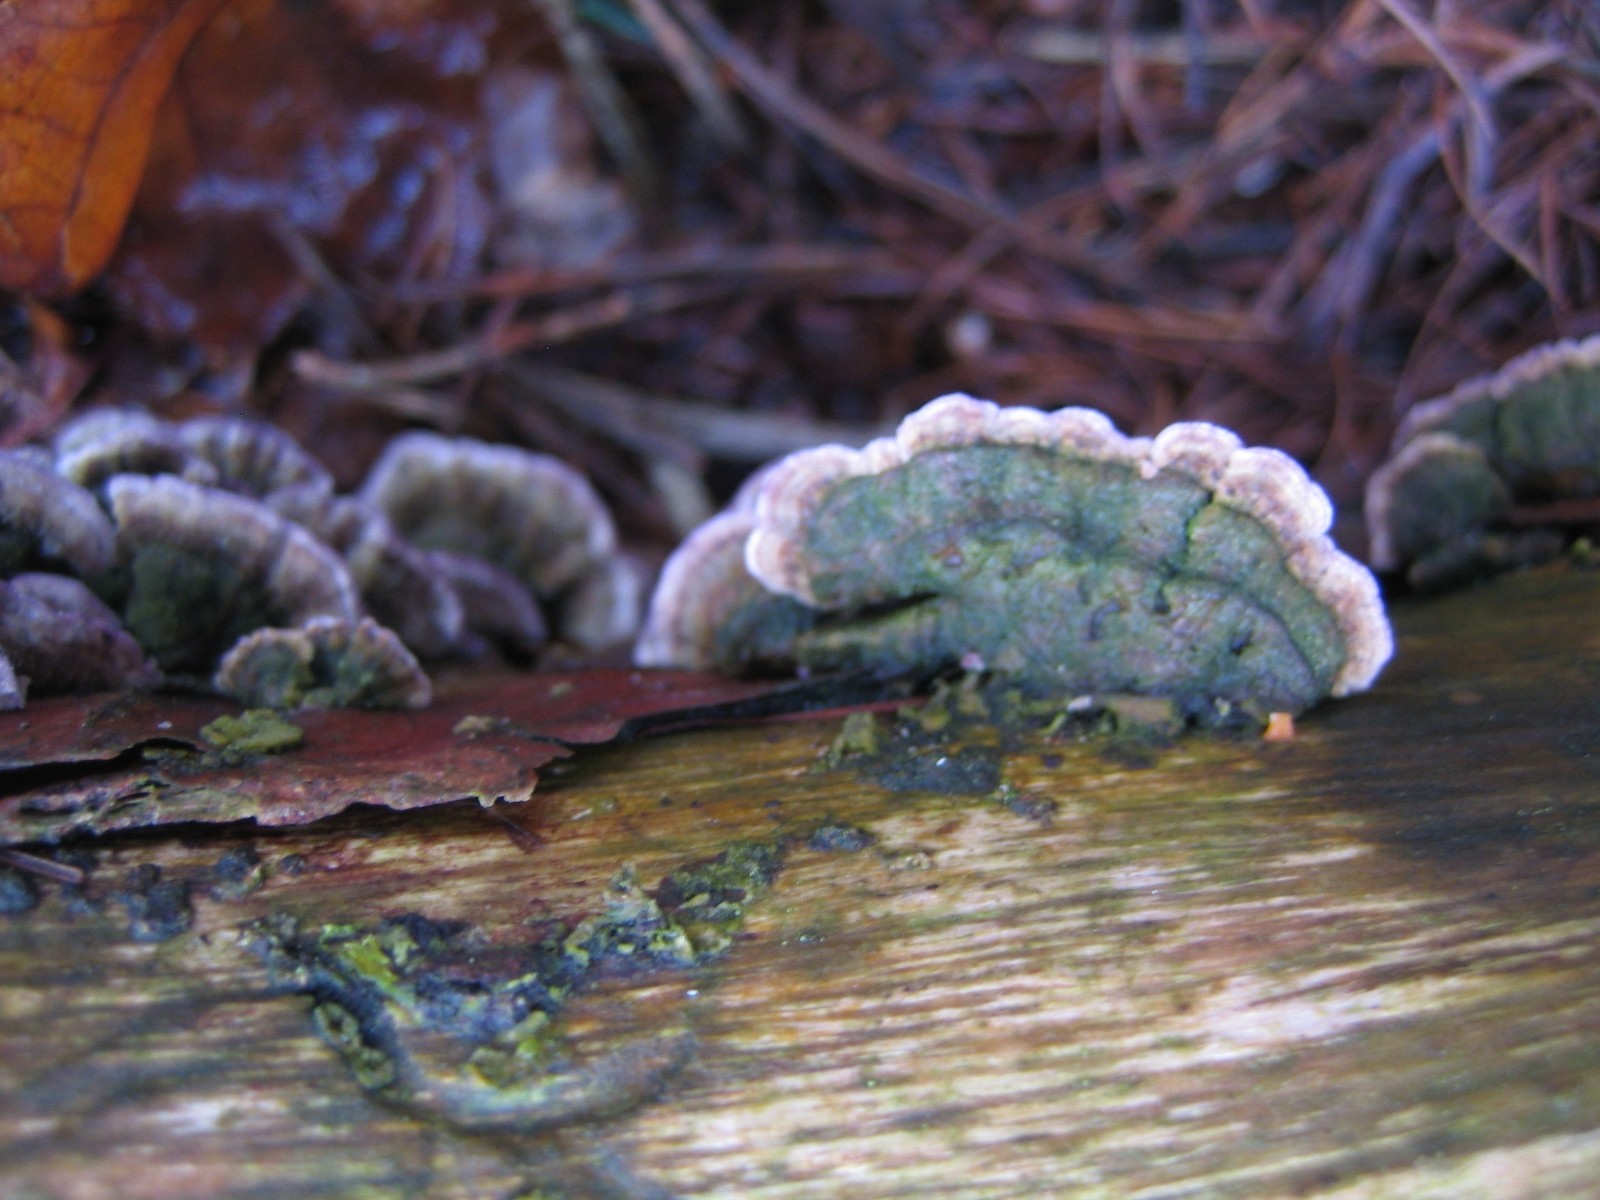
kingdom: Fungi
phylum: Basidiomycota
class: Agaricomycetes
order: Hymenochaetales
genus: Trichaptum
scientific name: Trichaptum abietinum
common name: almindelig violporesvamp
